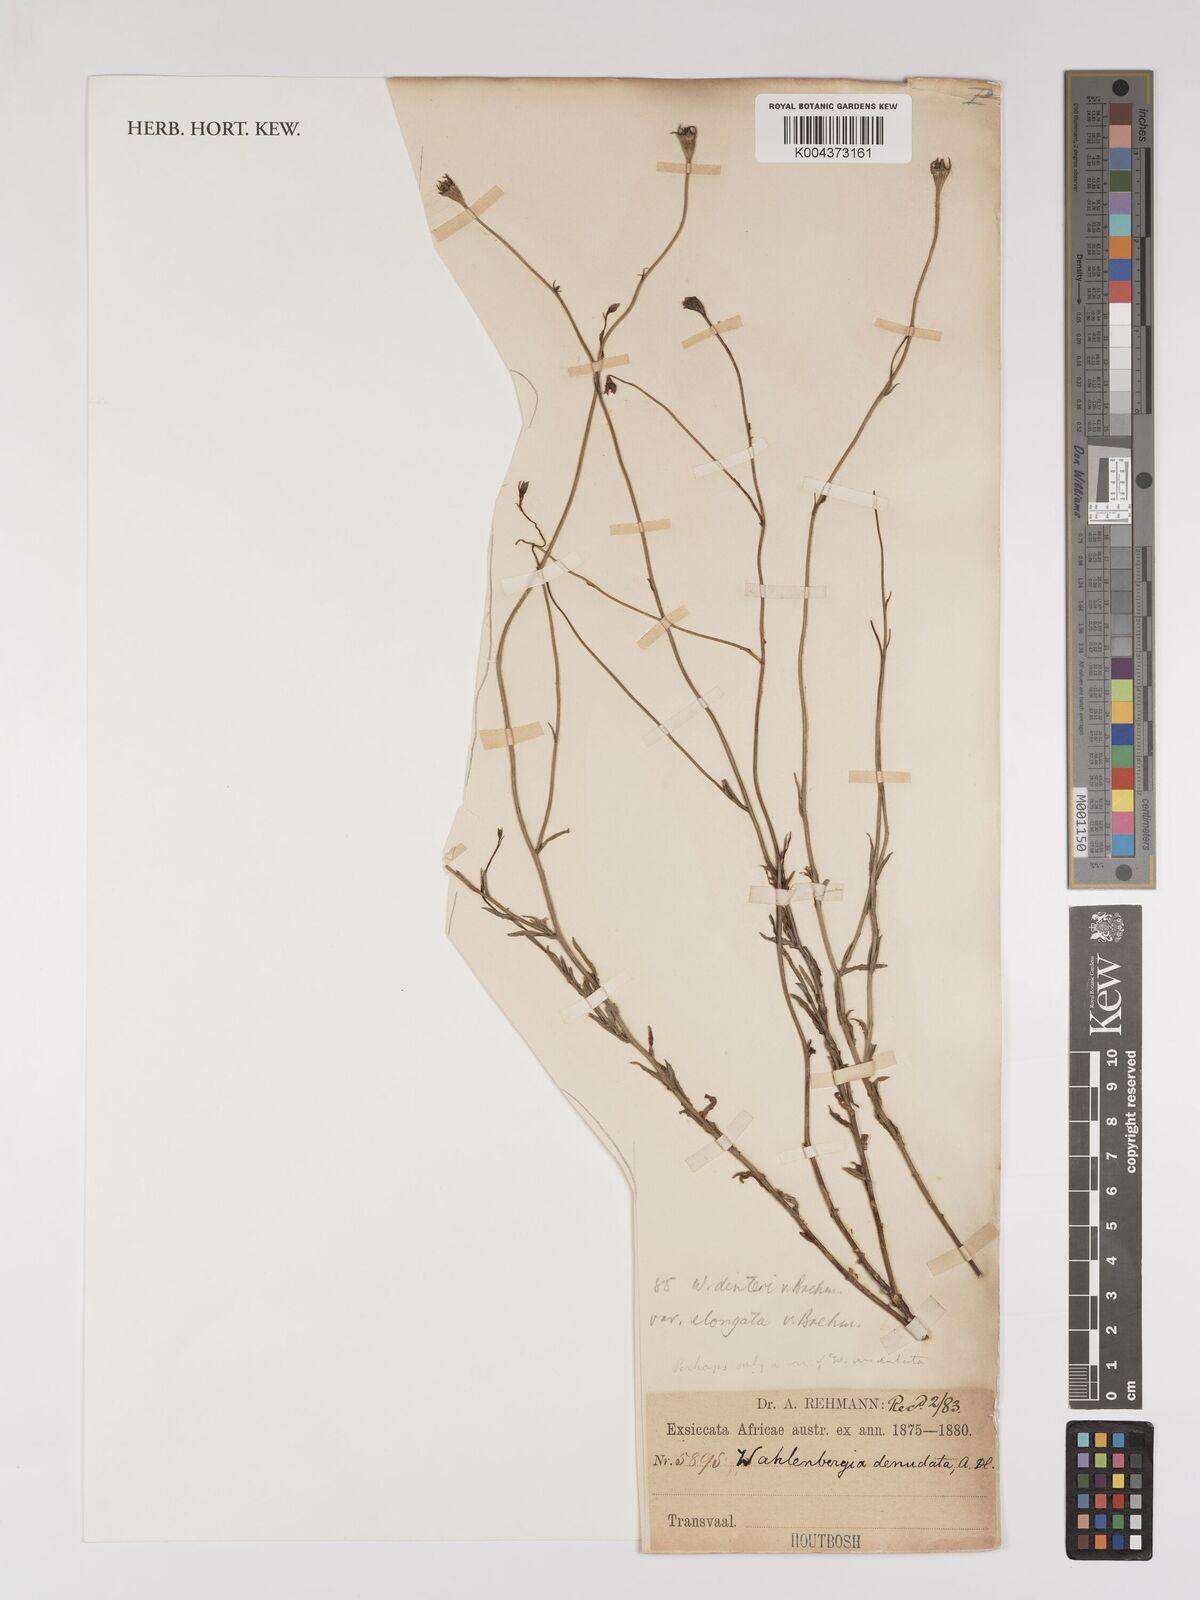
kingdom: Plantae
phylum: Tracheophyta
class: Magnoliopsida
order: Asterales
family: Campanulaceae
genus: Wahlenbergia
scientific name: Wahlenbergia undulata
